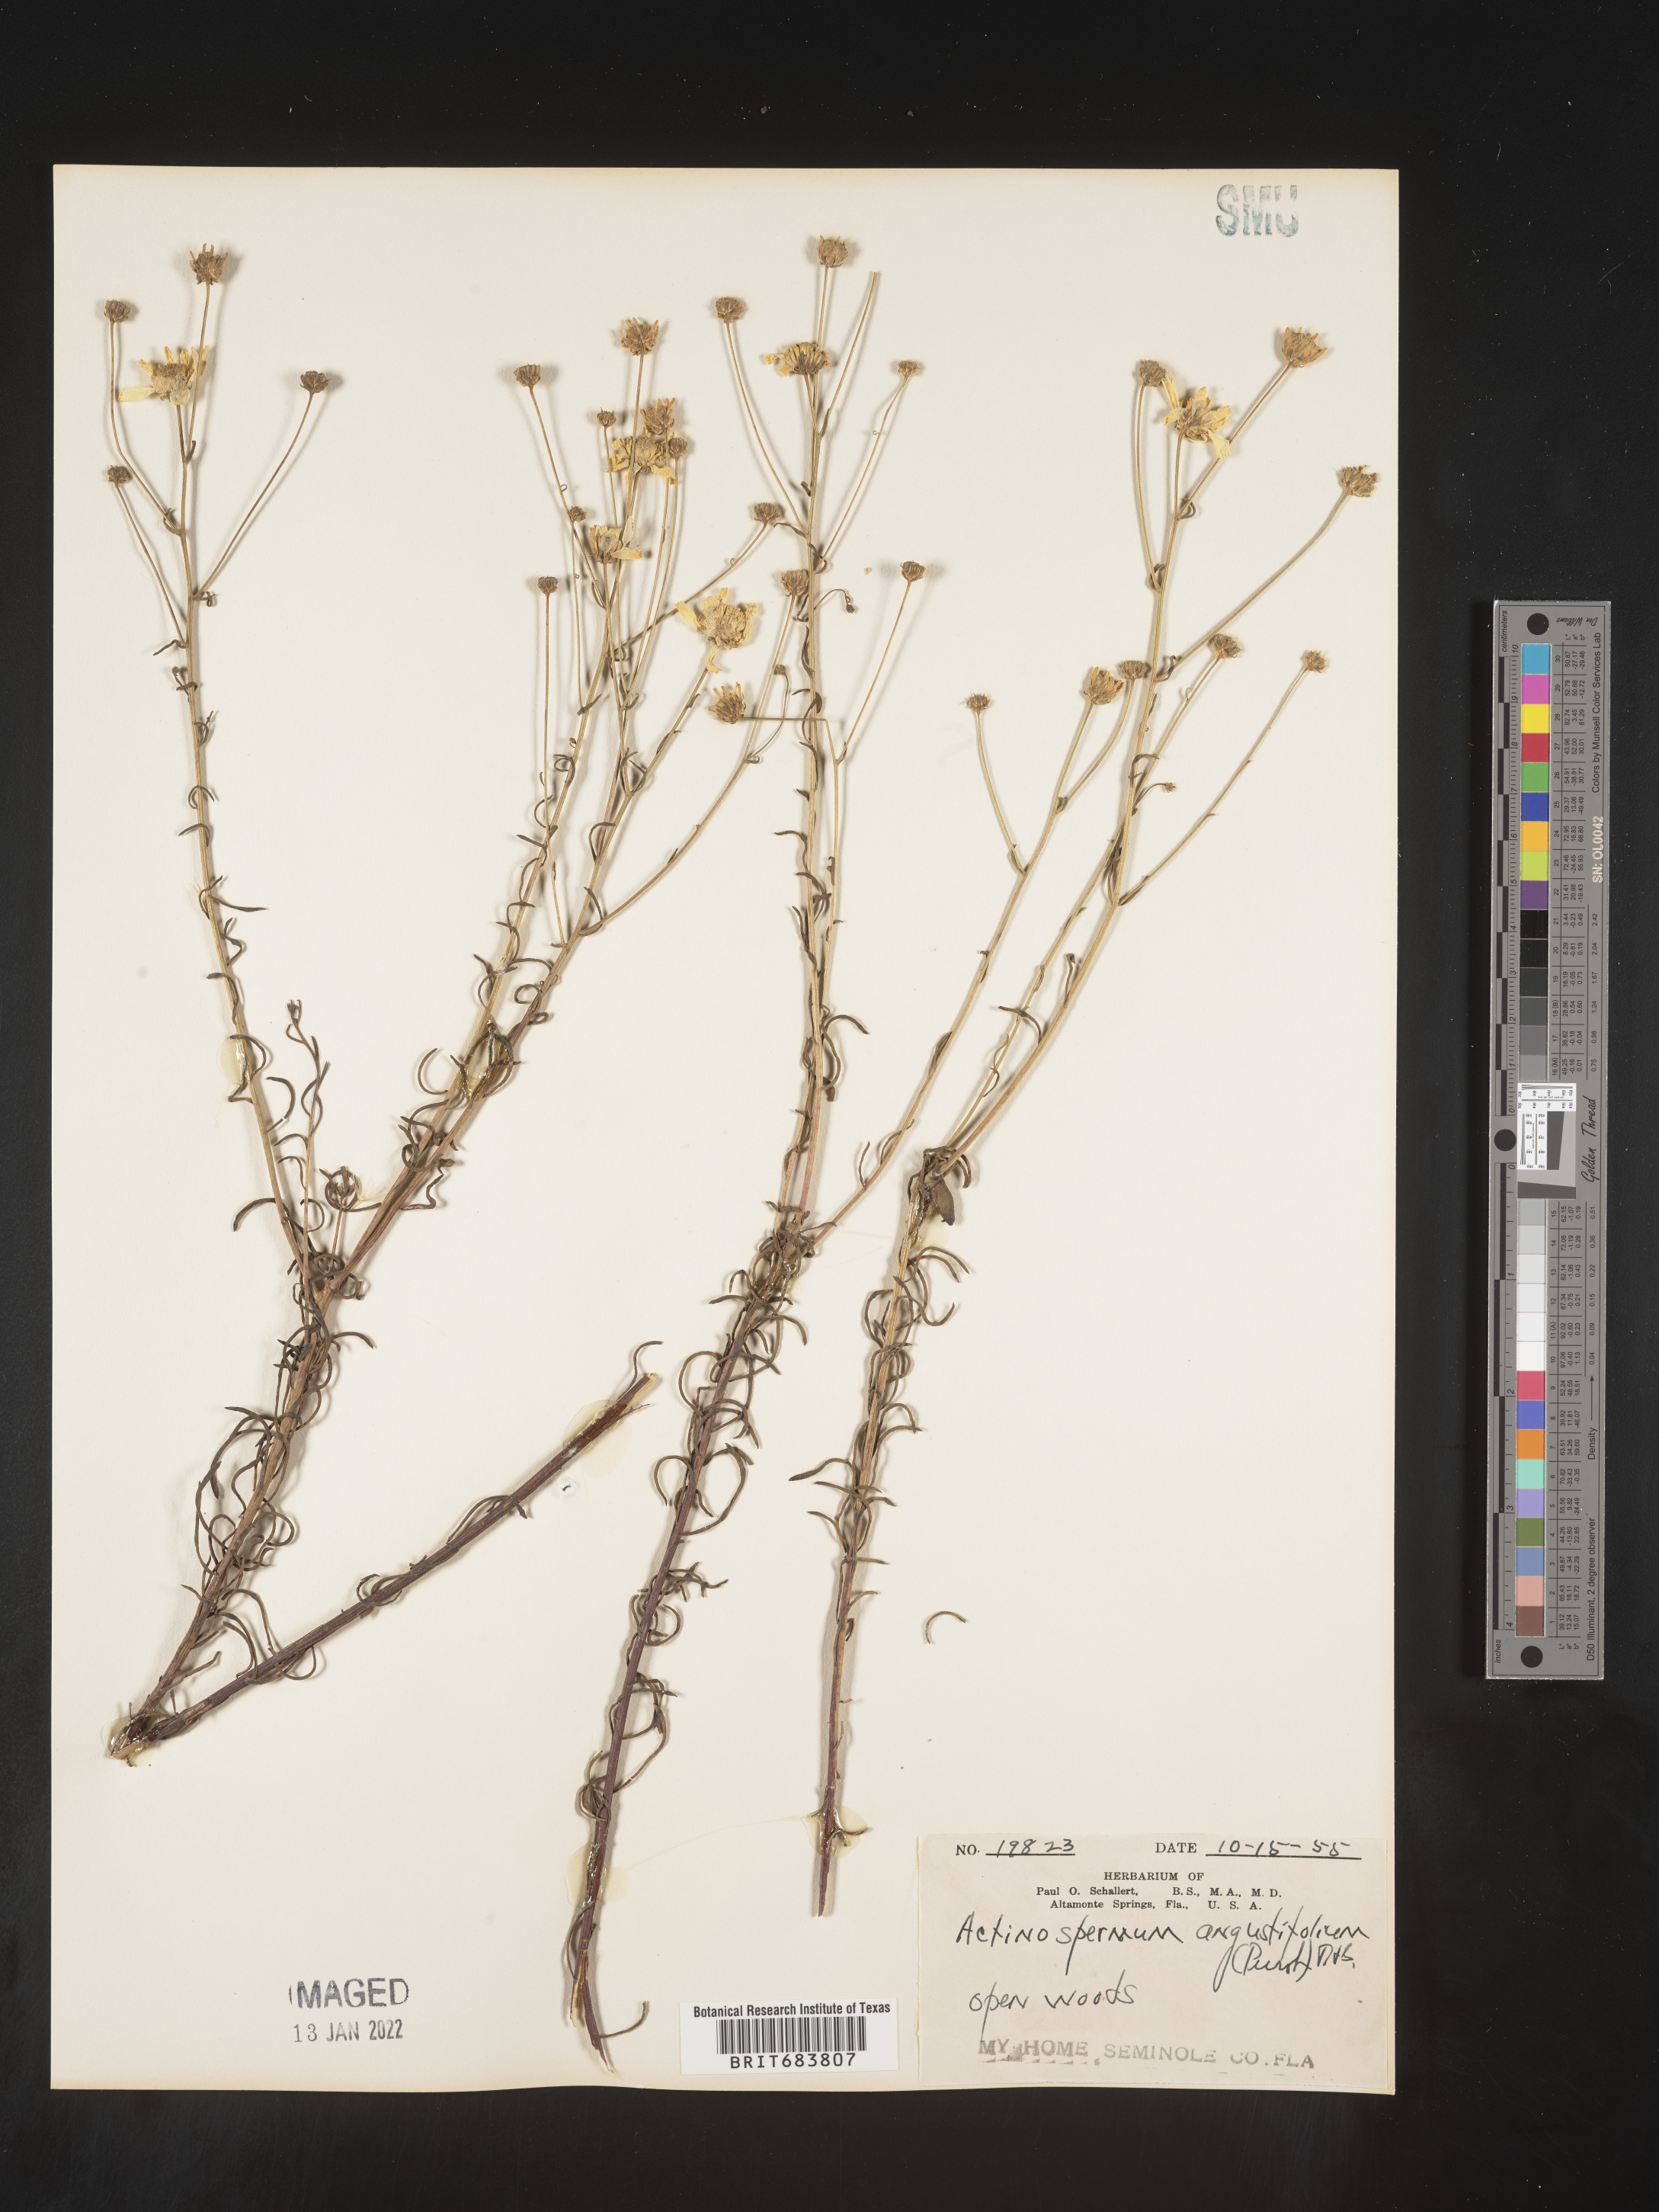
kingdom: Plantae
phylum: Tracheophyta
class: Magnoliopsida
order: Asterales
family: Asteraceae
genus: Balduina
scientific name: Balduina angustifolia
